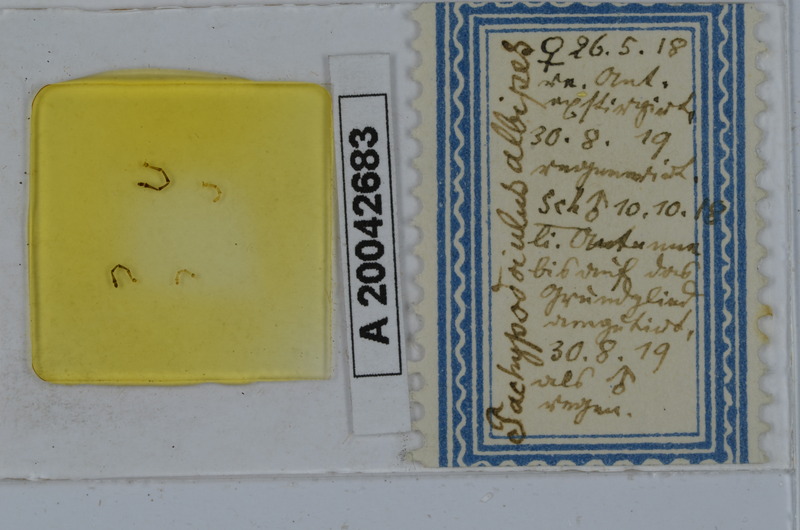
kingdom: Animalia
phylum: Arthropoda
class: Diplopoda
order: Julida
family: Julidae
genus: Tachypodoiulus
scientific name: Tachypodoiulus niger
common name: White-legged snake millipede
